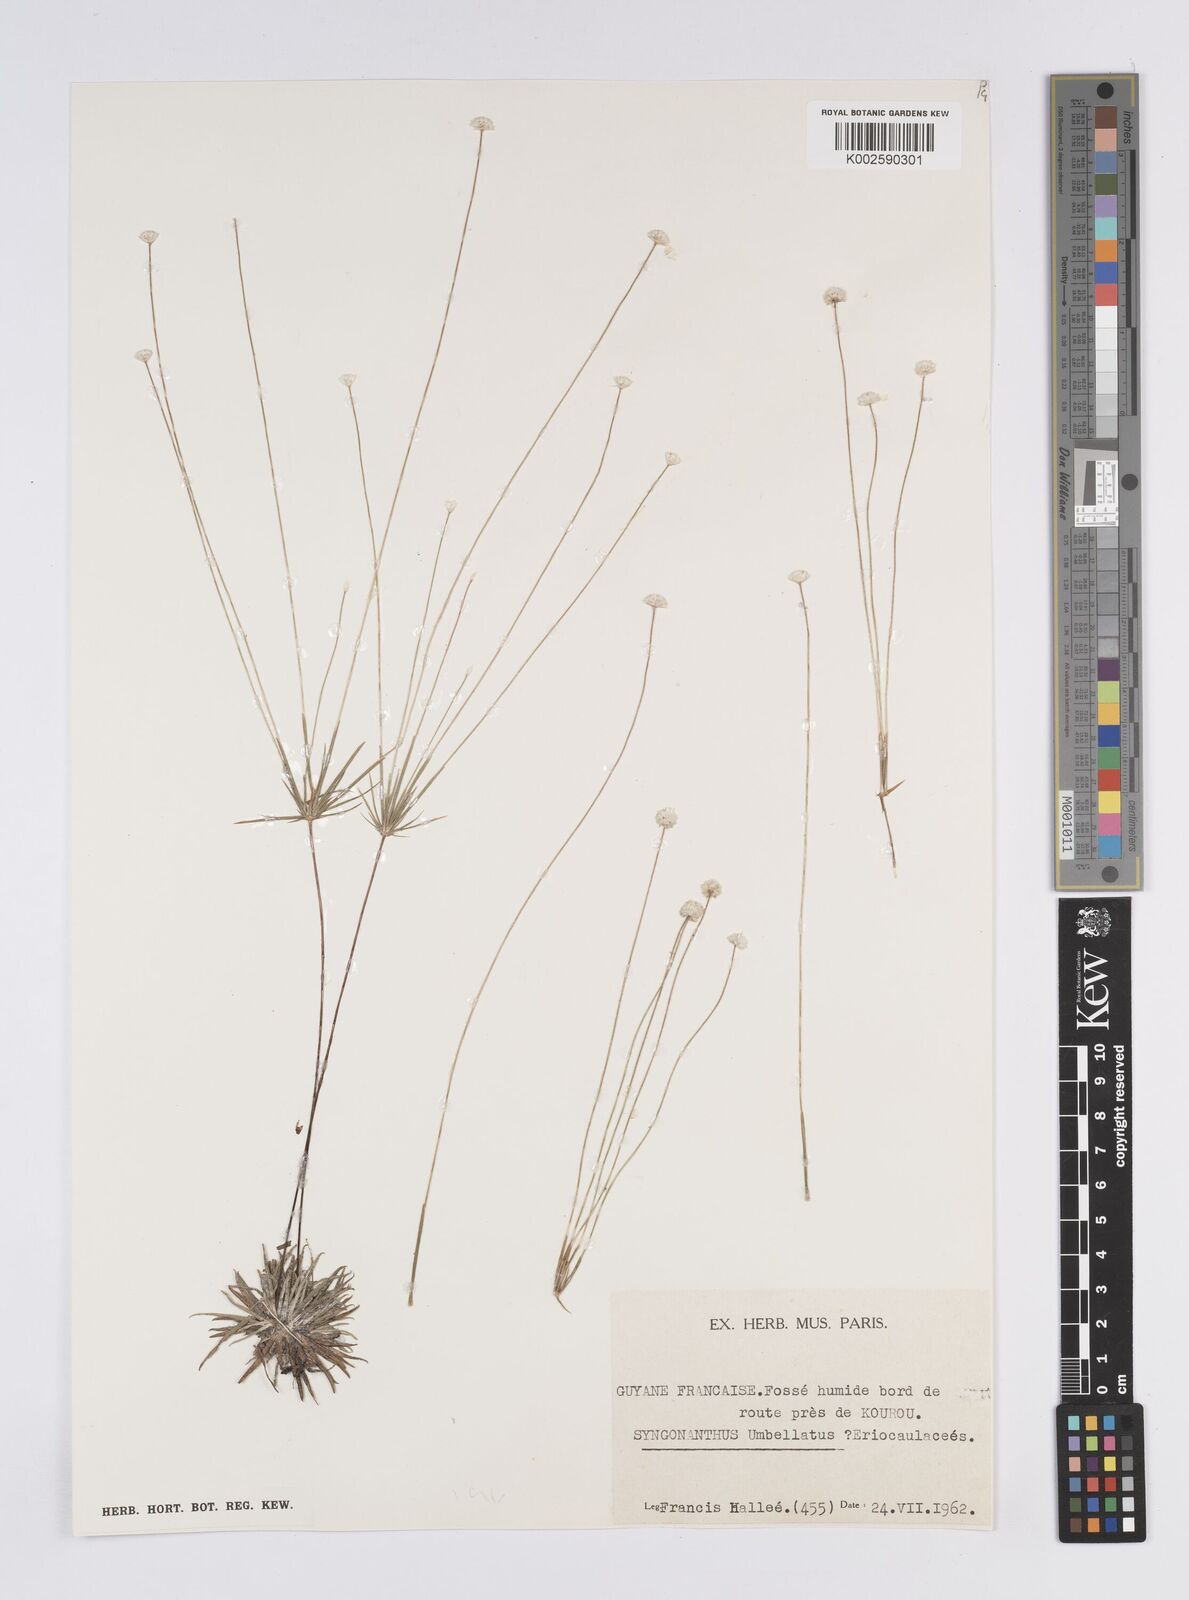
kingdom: Plantae
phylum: Tracheophyta
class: Liliopsida
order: Poales
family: Eriocaulaceae
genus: Syngonanthus
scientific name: Syngonanthus umbellatus
